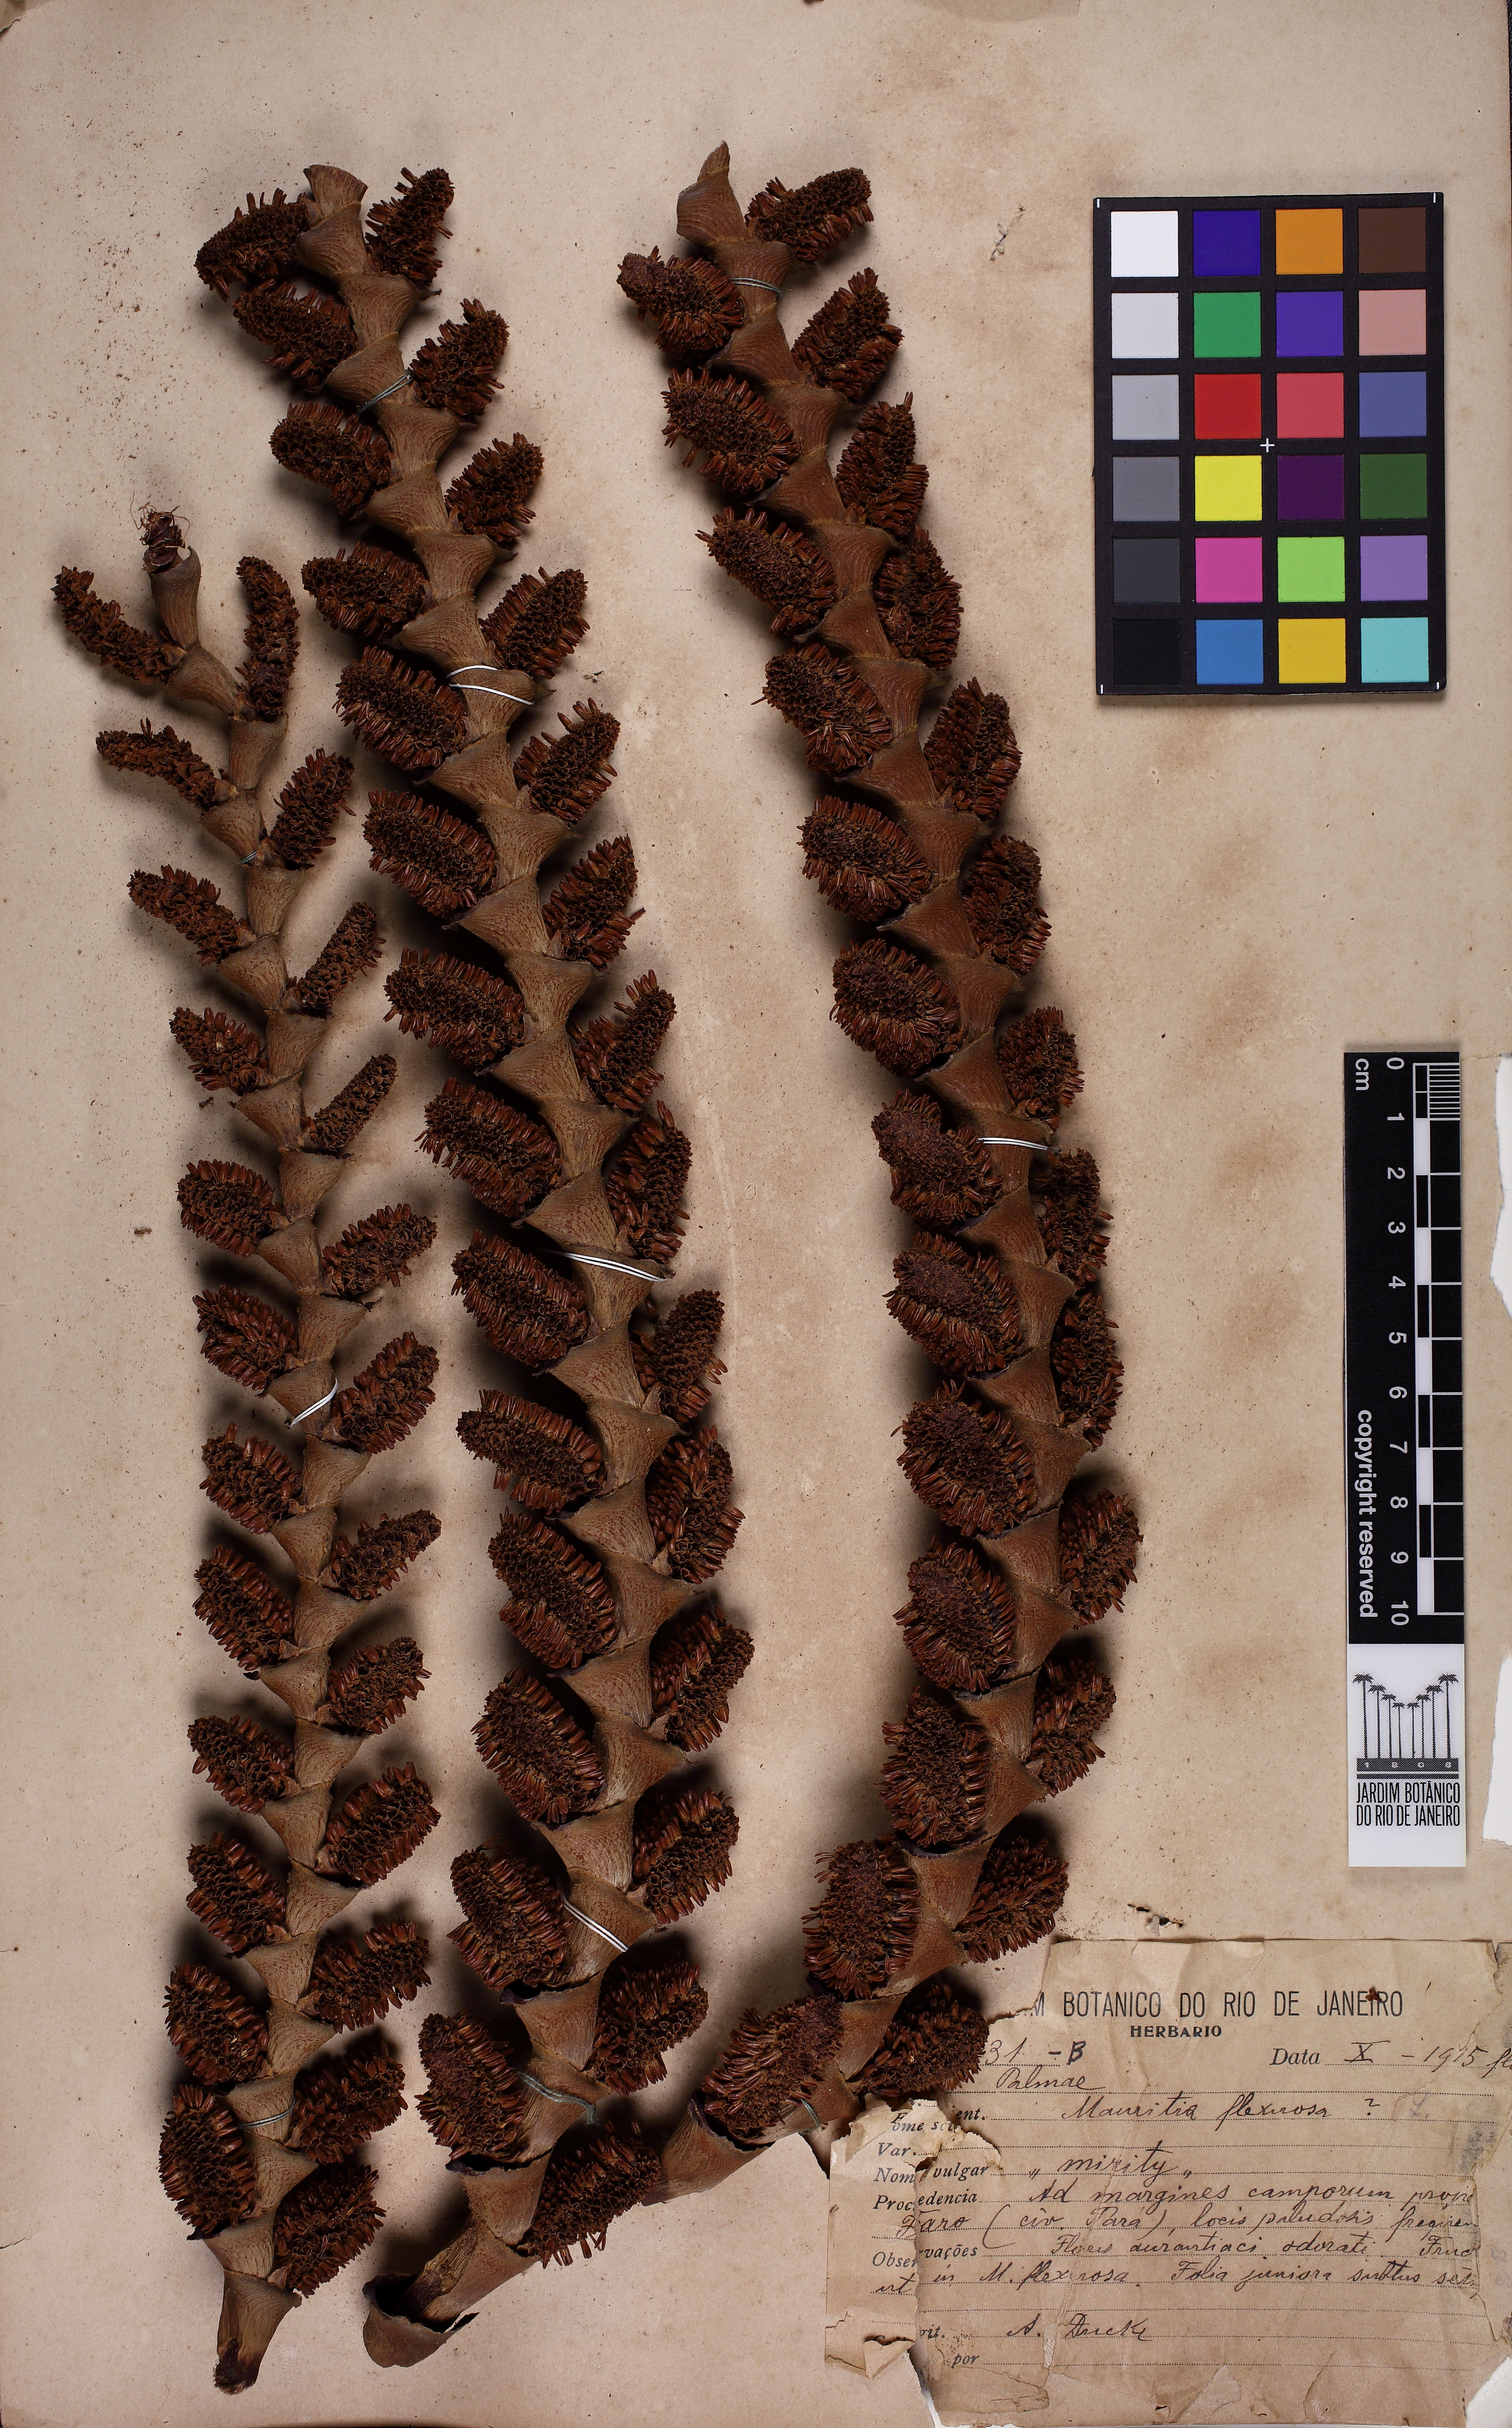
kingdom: Plantae
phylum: Tracheophyta
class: Liliopsida
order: Arecales
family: Arecaceae
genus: Mauritia
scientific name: Mauritia
